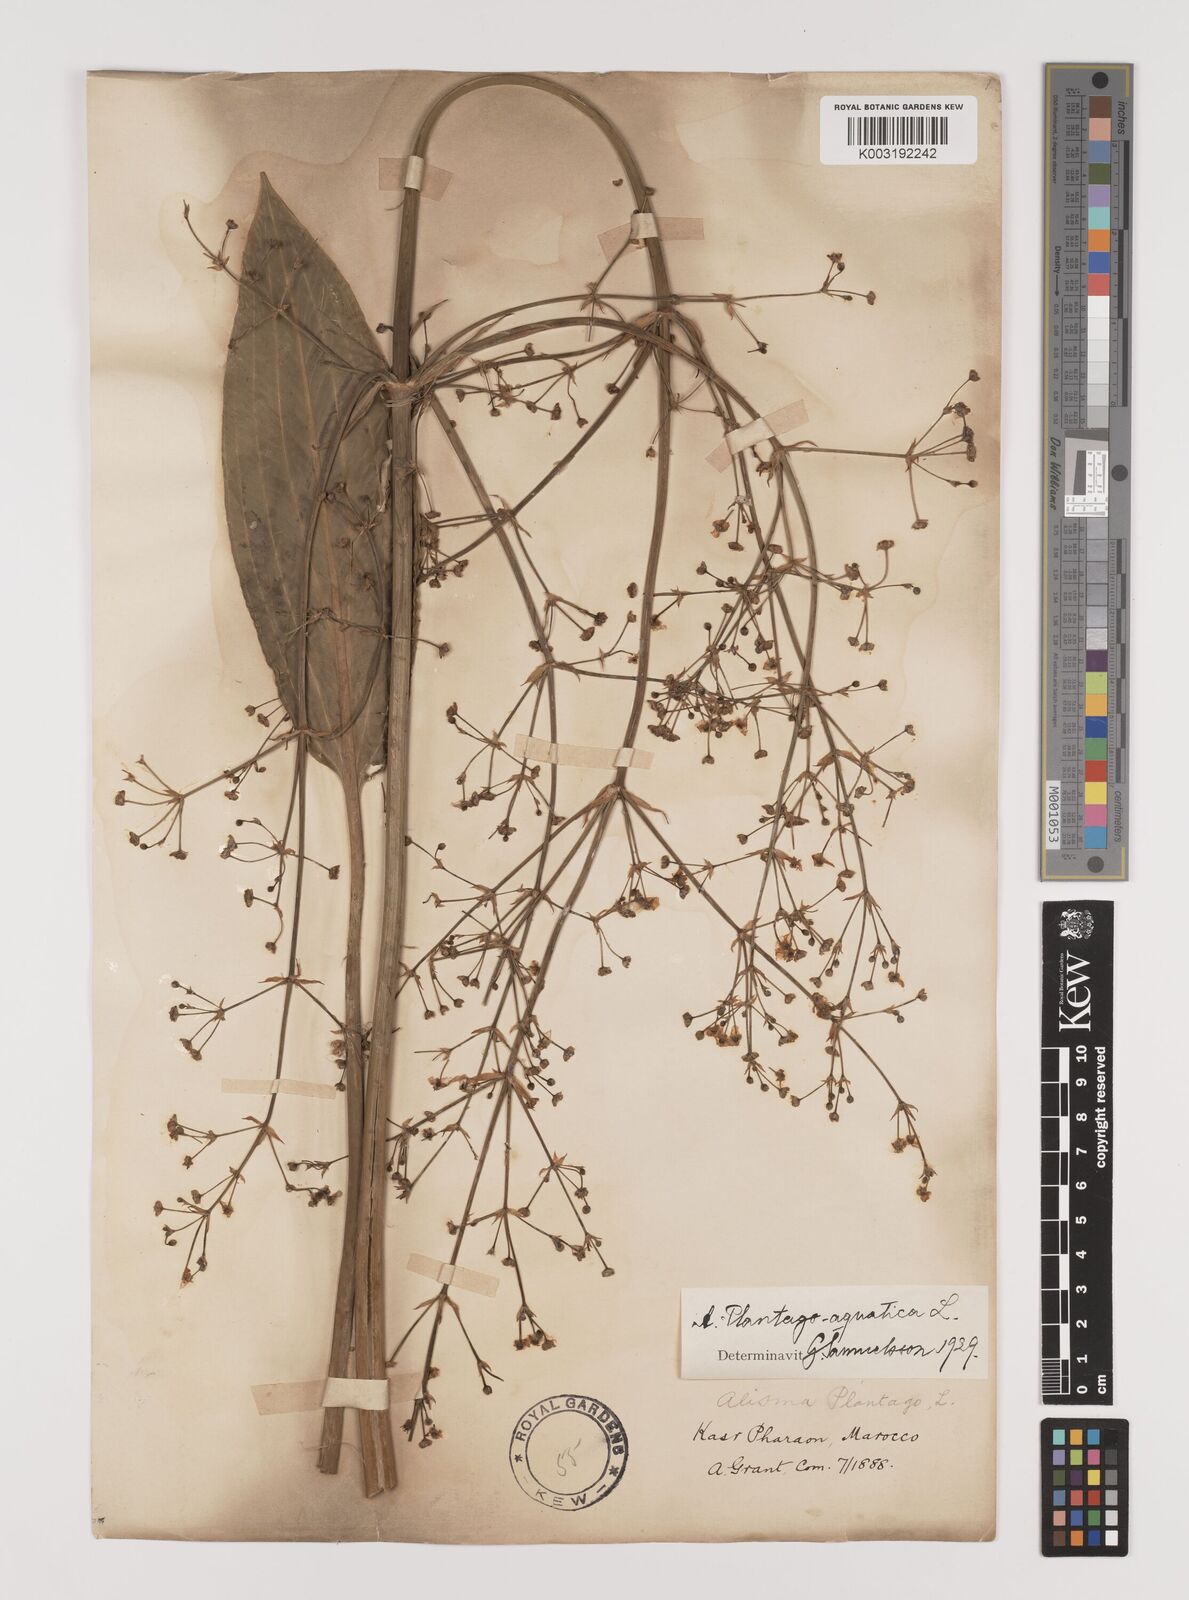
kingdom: Plantae
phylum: Tracheophyta
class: Liliopsida
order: Alismatales
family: Alismataceae
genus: Alisma
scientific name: Alisma plantago-aquatica
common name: Water-plantain
